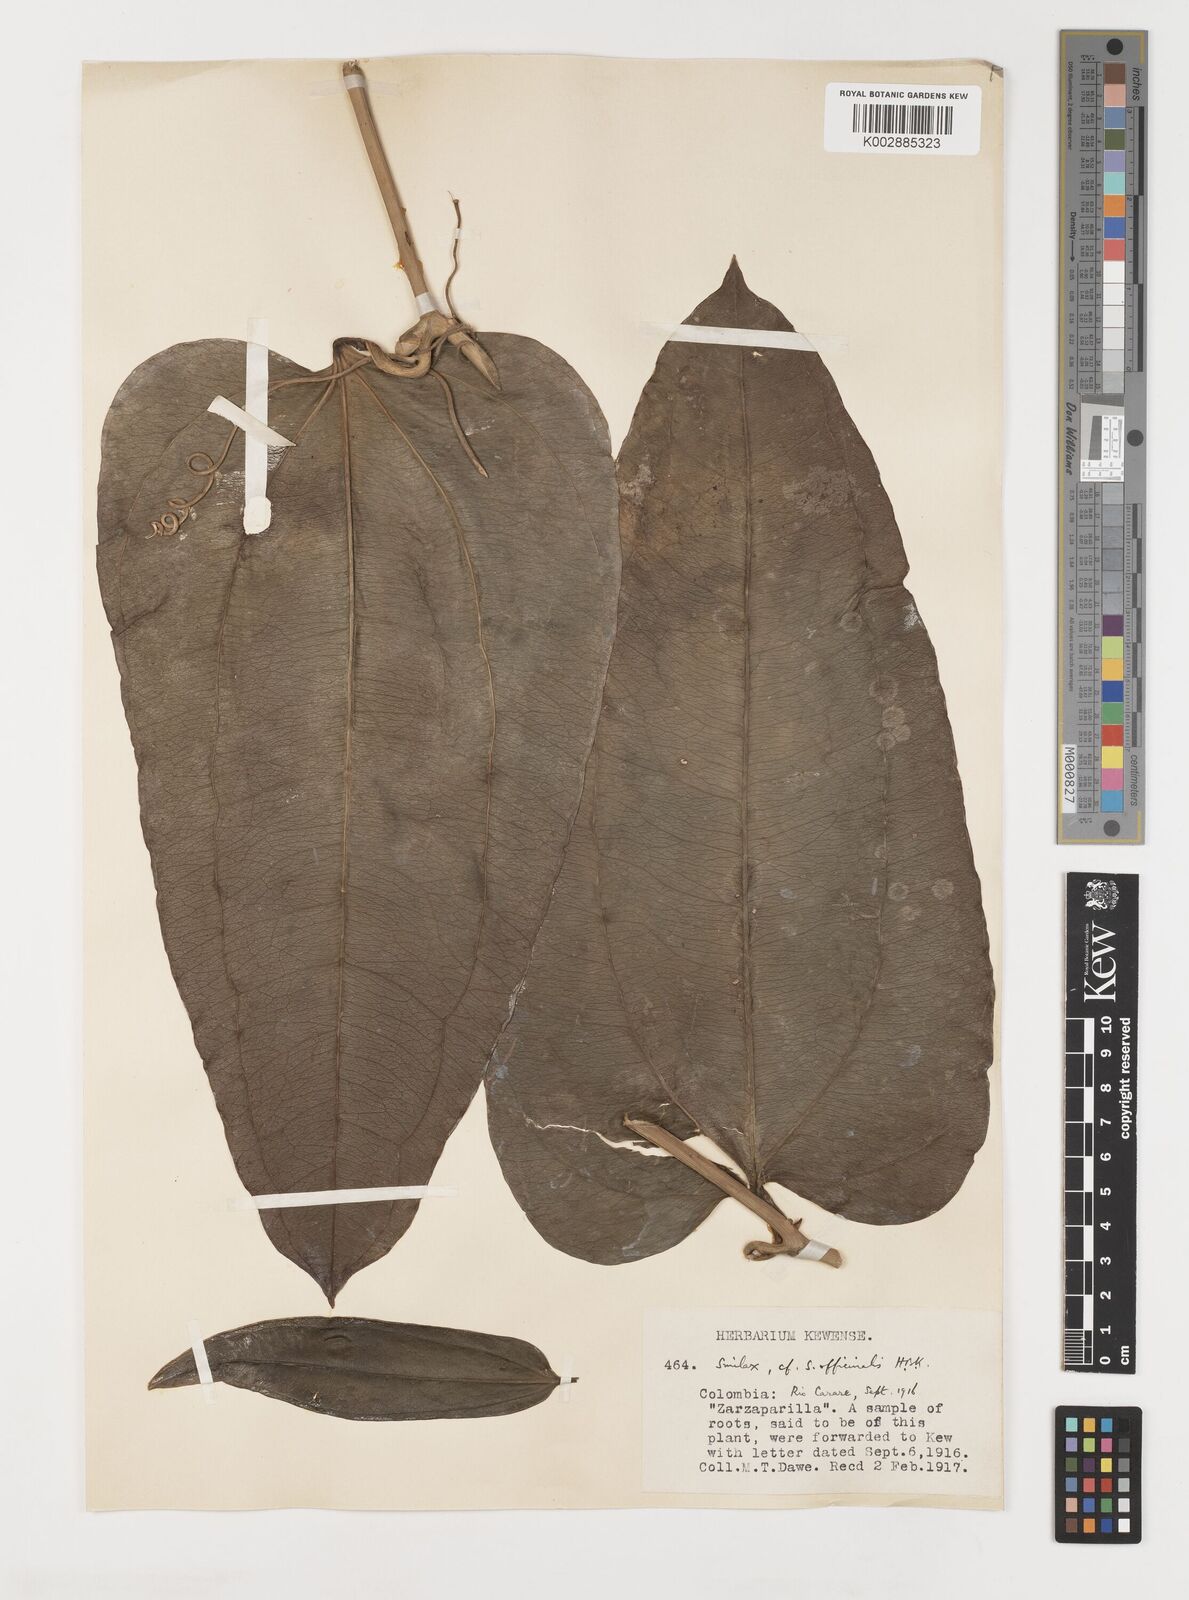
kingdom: Plantae
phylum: Tracheophyta
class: Liliopsida
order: Liliales
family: Smilacaceae
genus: Smilax
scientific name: Smilax officinalis
